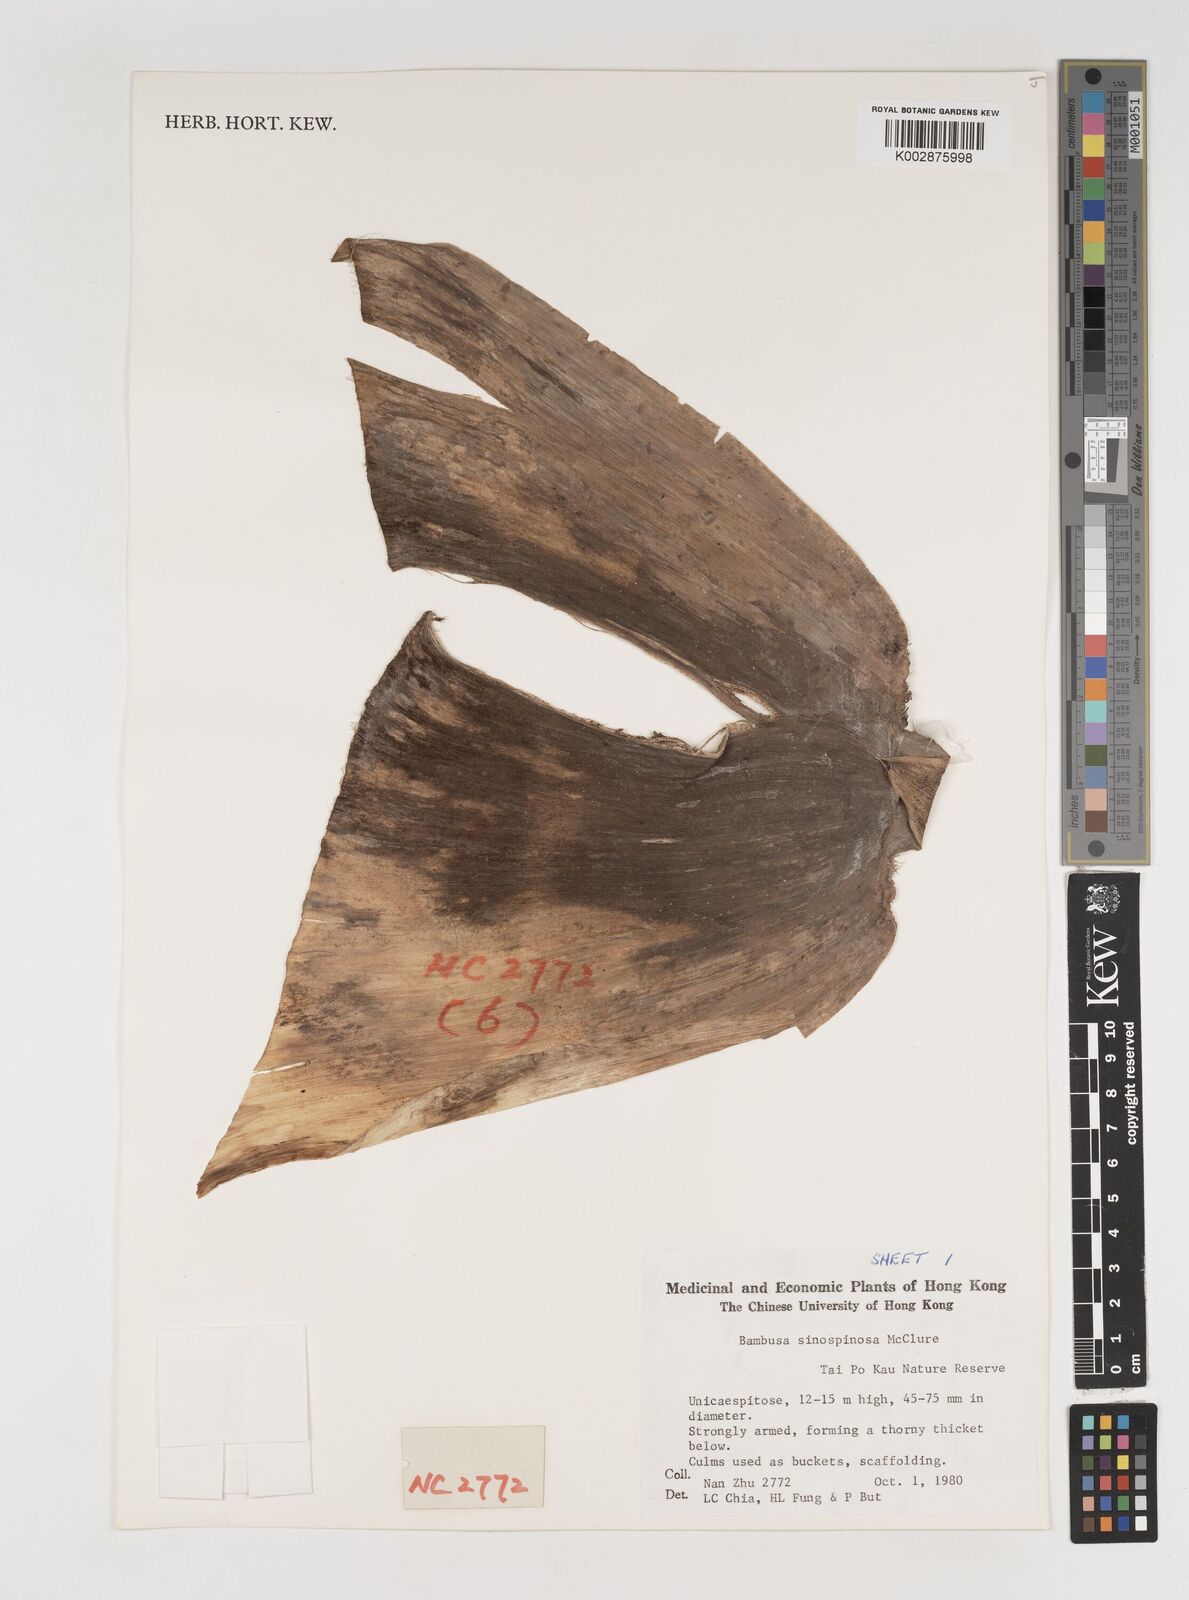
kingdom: Plantae
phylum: Tracheophyta
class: Liliopsida
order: Poales
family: Poaceae
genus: Bambusa
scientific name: Bambusa sinospinosa
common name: Spiny bamboo
